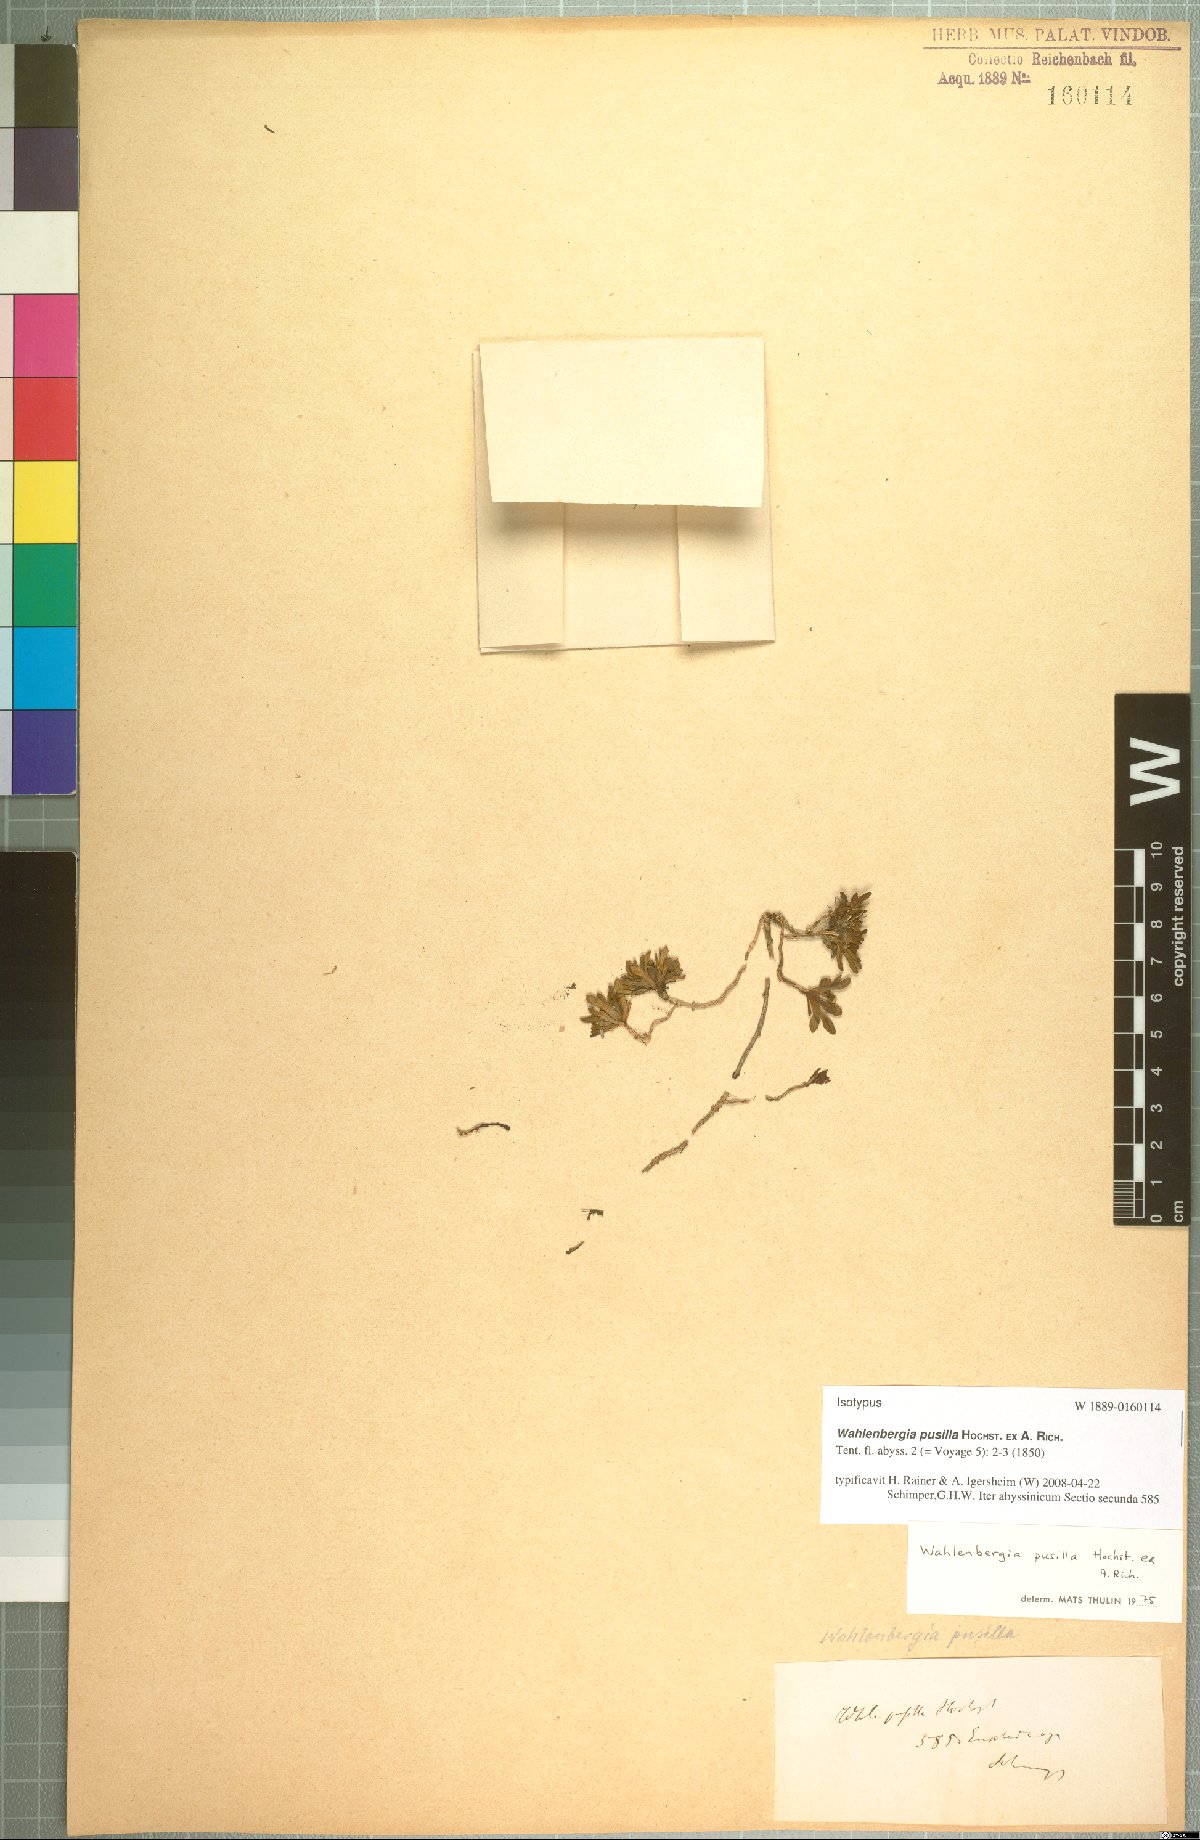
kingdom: Plantae
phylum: Tracheophyta
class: Magnoliopsida
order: Asterales
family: Campanulaceae
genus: Wahlenbergia
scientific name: Wahlenbergia pusilla
